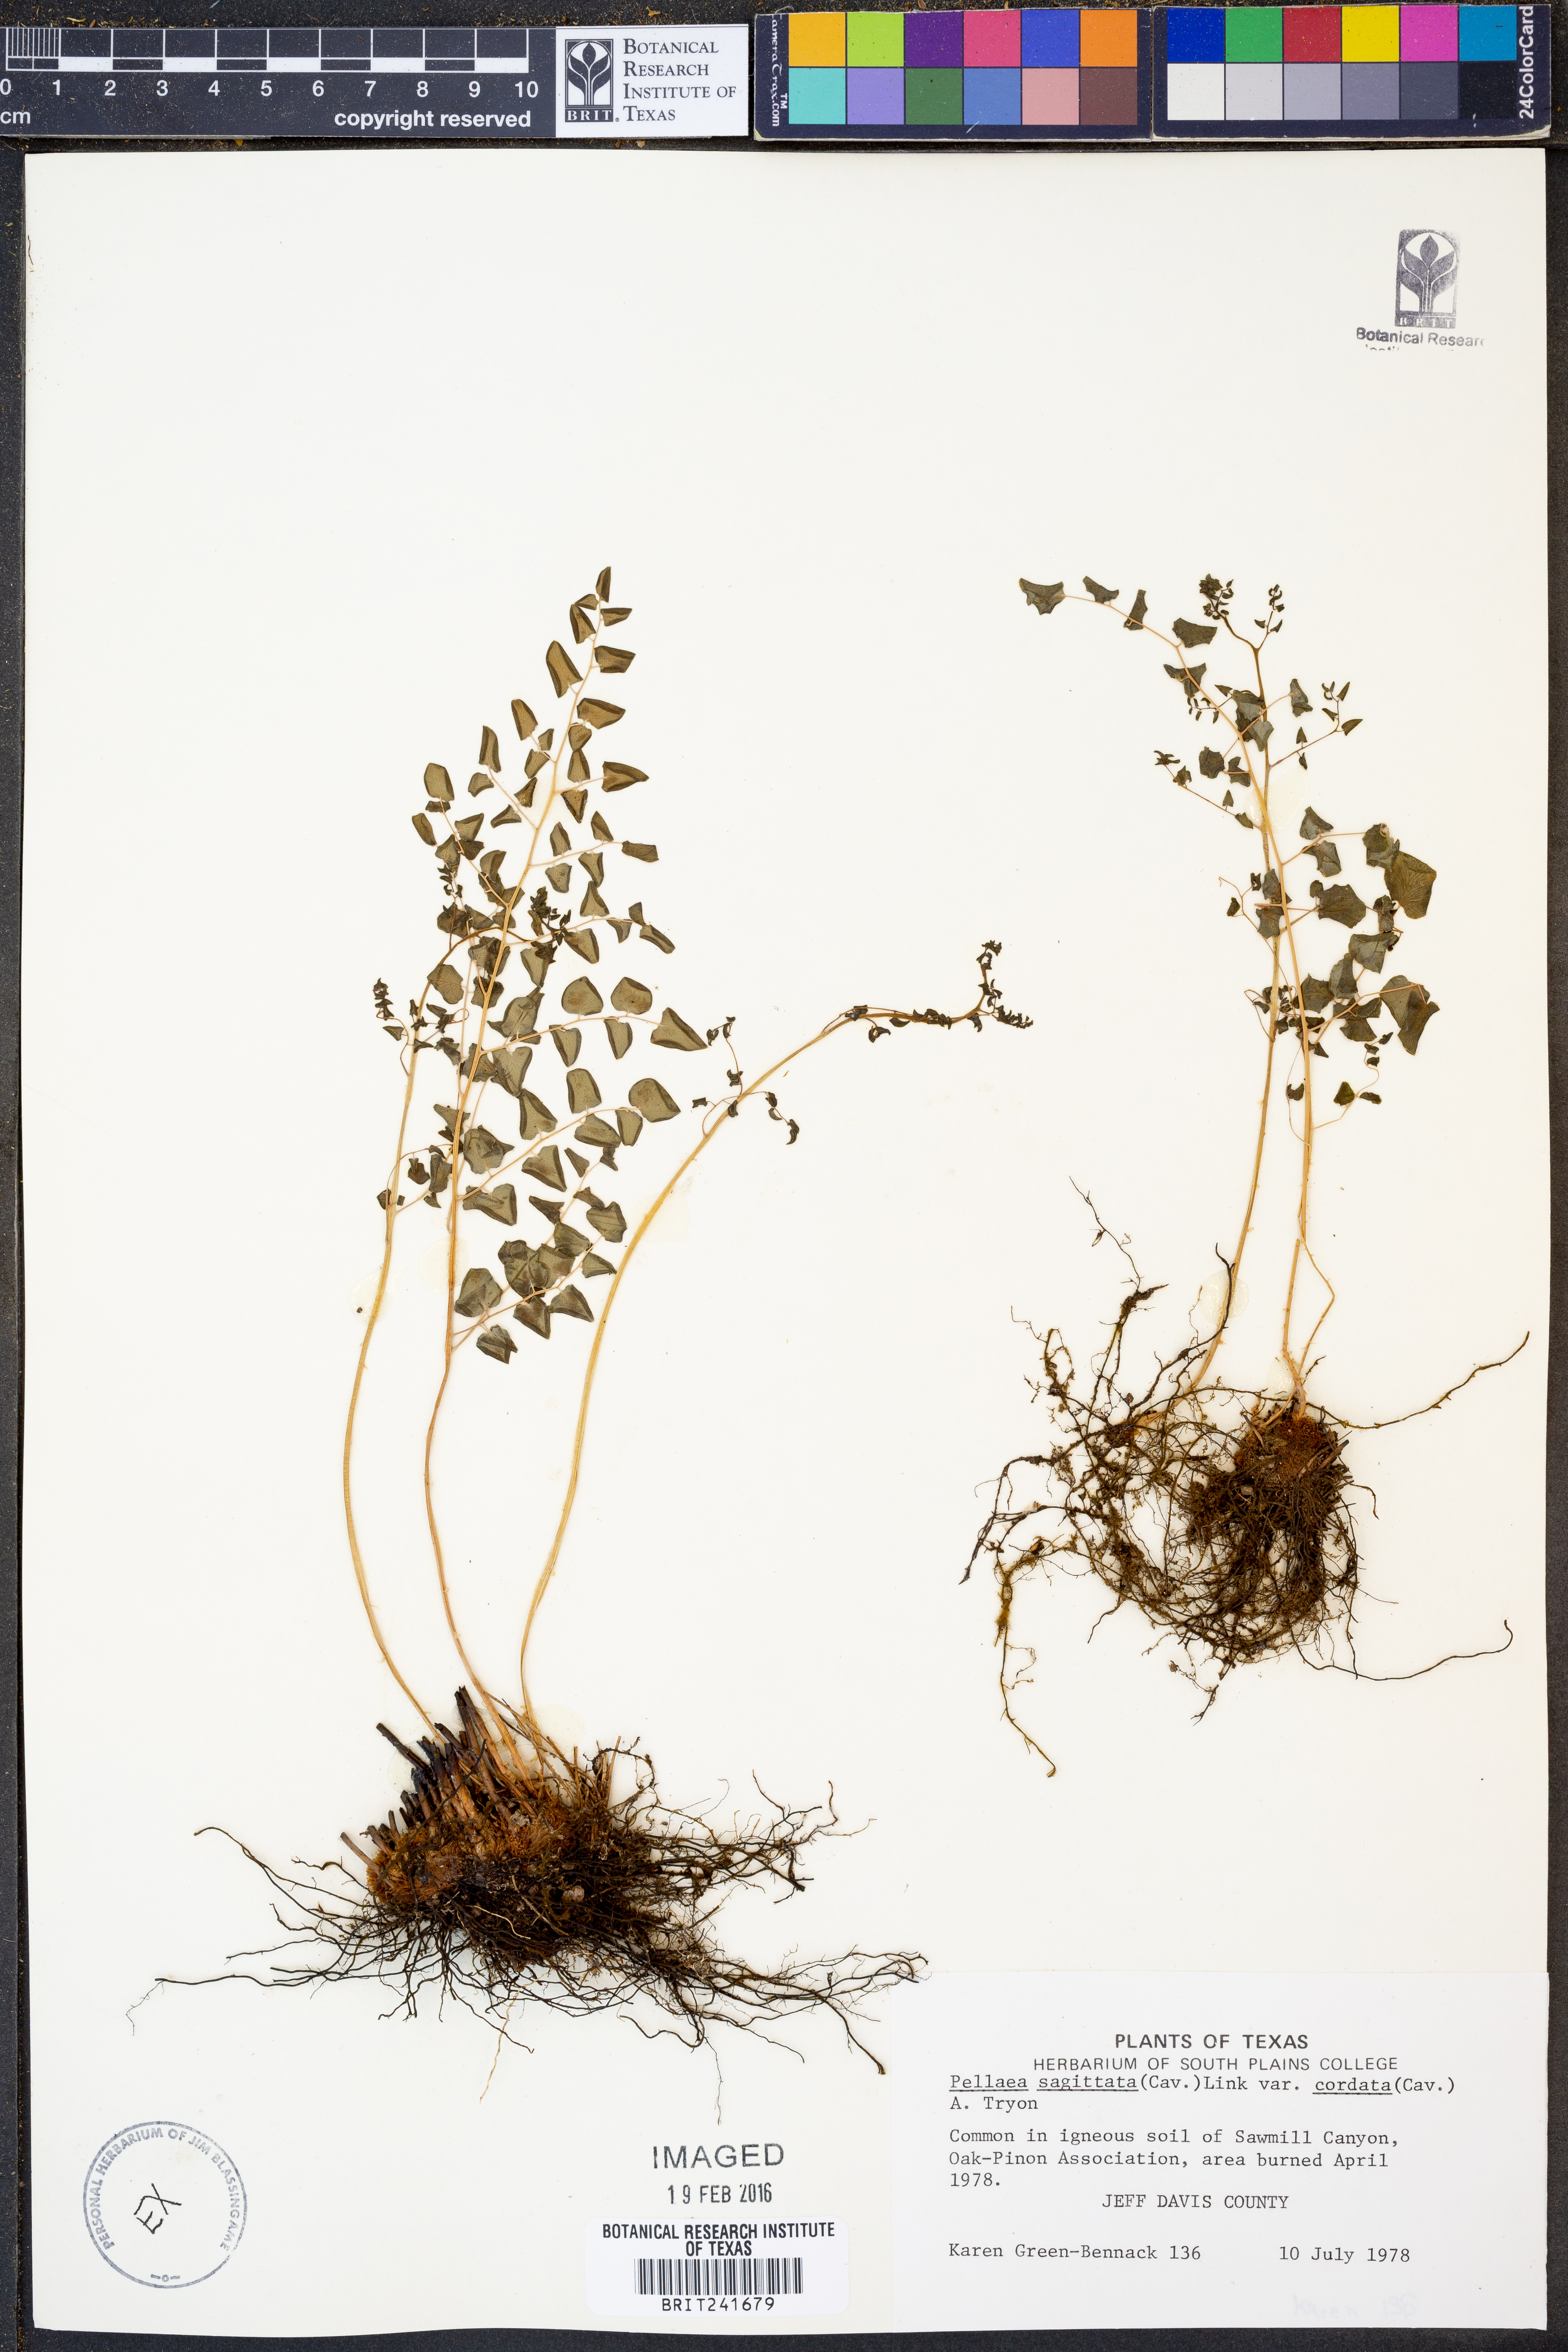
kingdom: Plantae
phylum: Tracheophyta
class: Polypodiopsida
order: Polypodiales
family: Pteridaceae
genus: Pellaea
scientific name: Pellaea cordifolia
